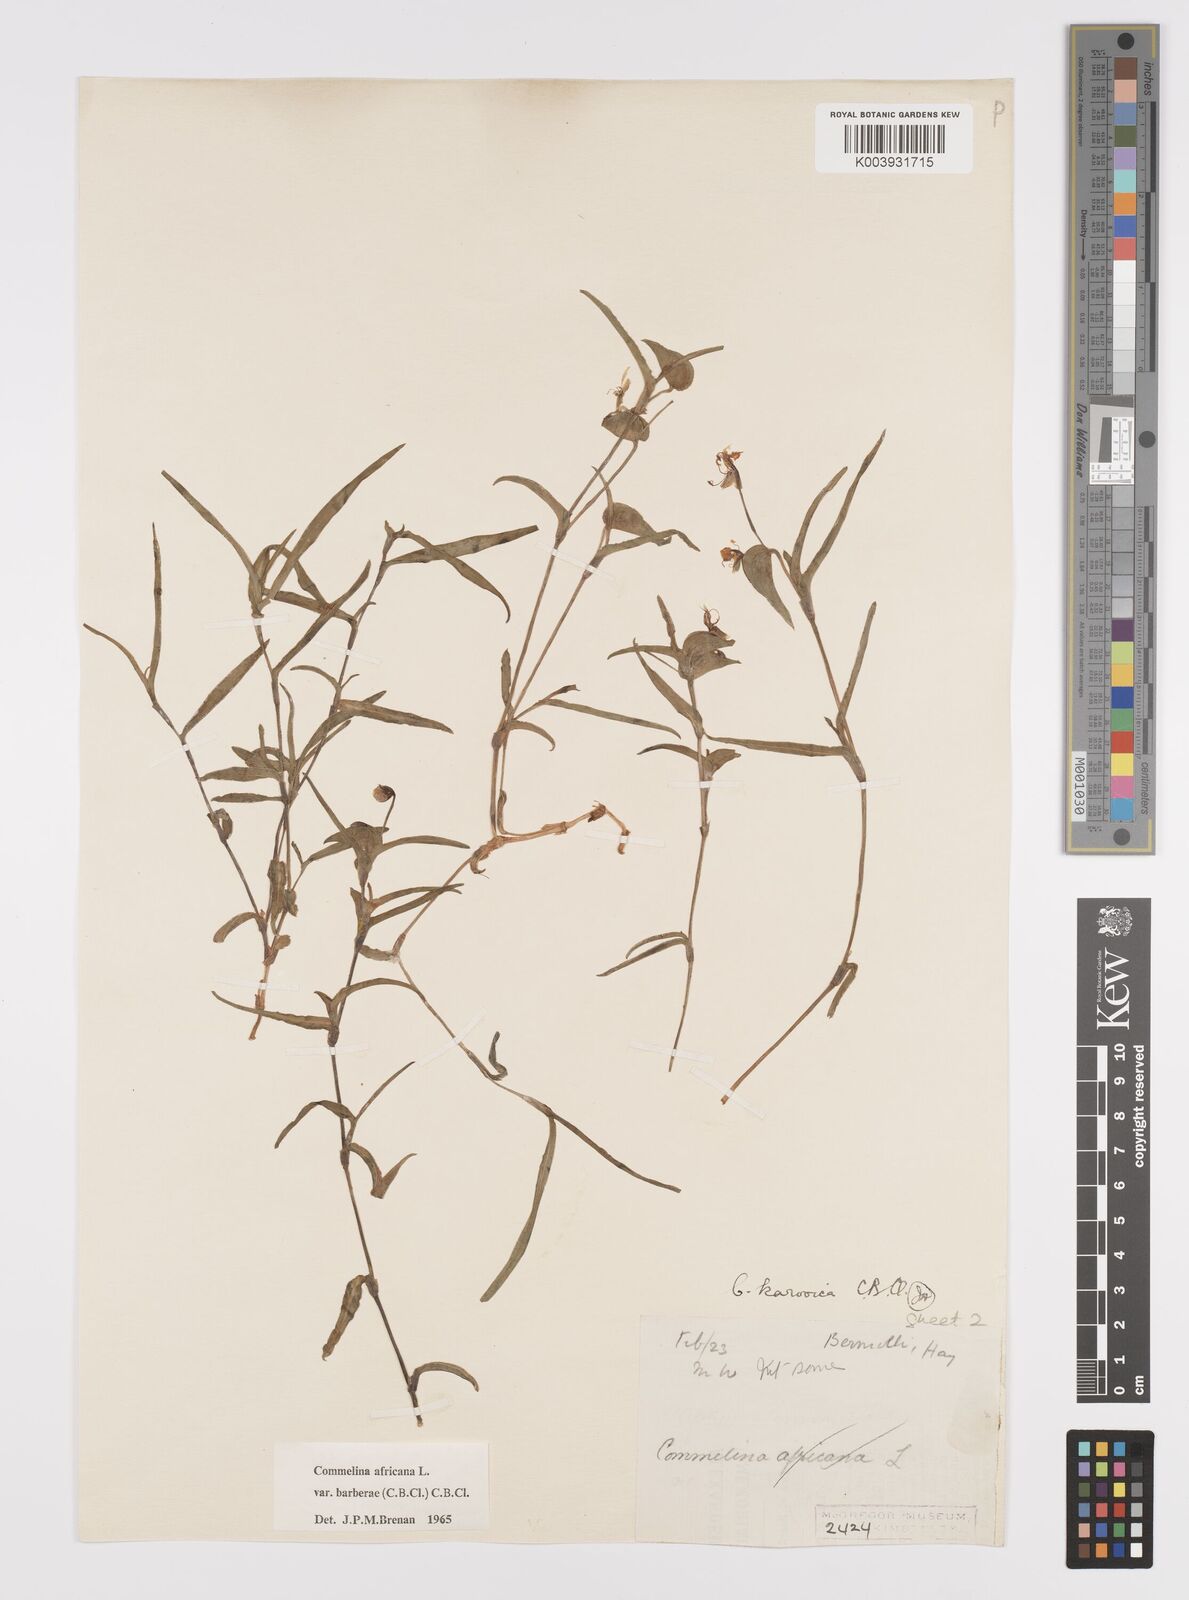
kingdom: Plantae
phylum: Tracheophyta
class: Liliopsida
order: Commelinales
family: Commelinaceae
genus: Commelina
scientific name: Commelina africana
